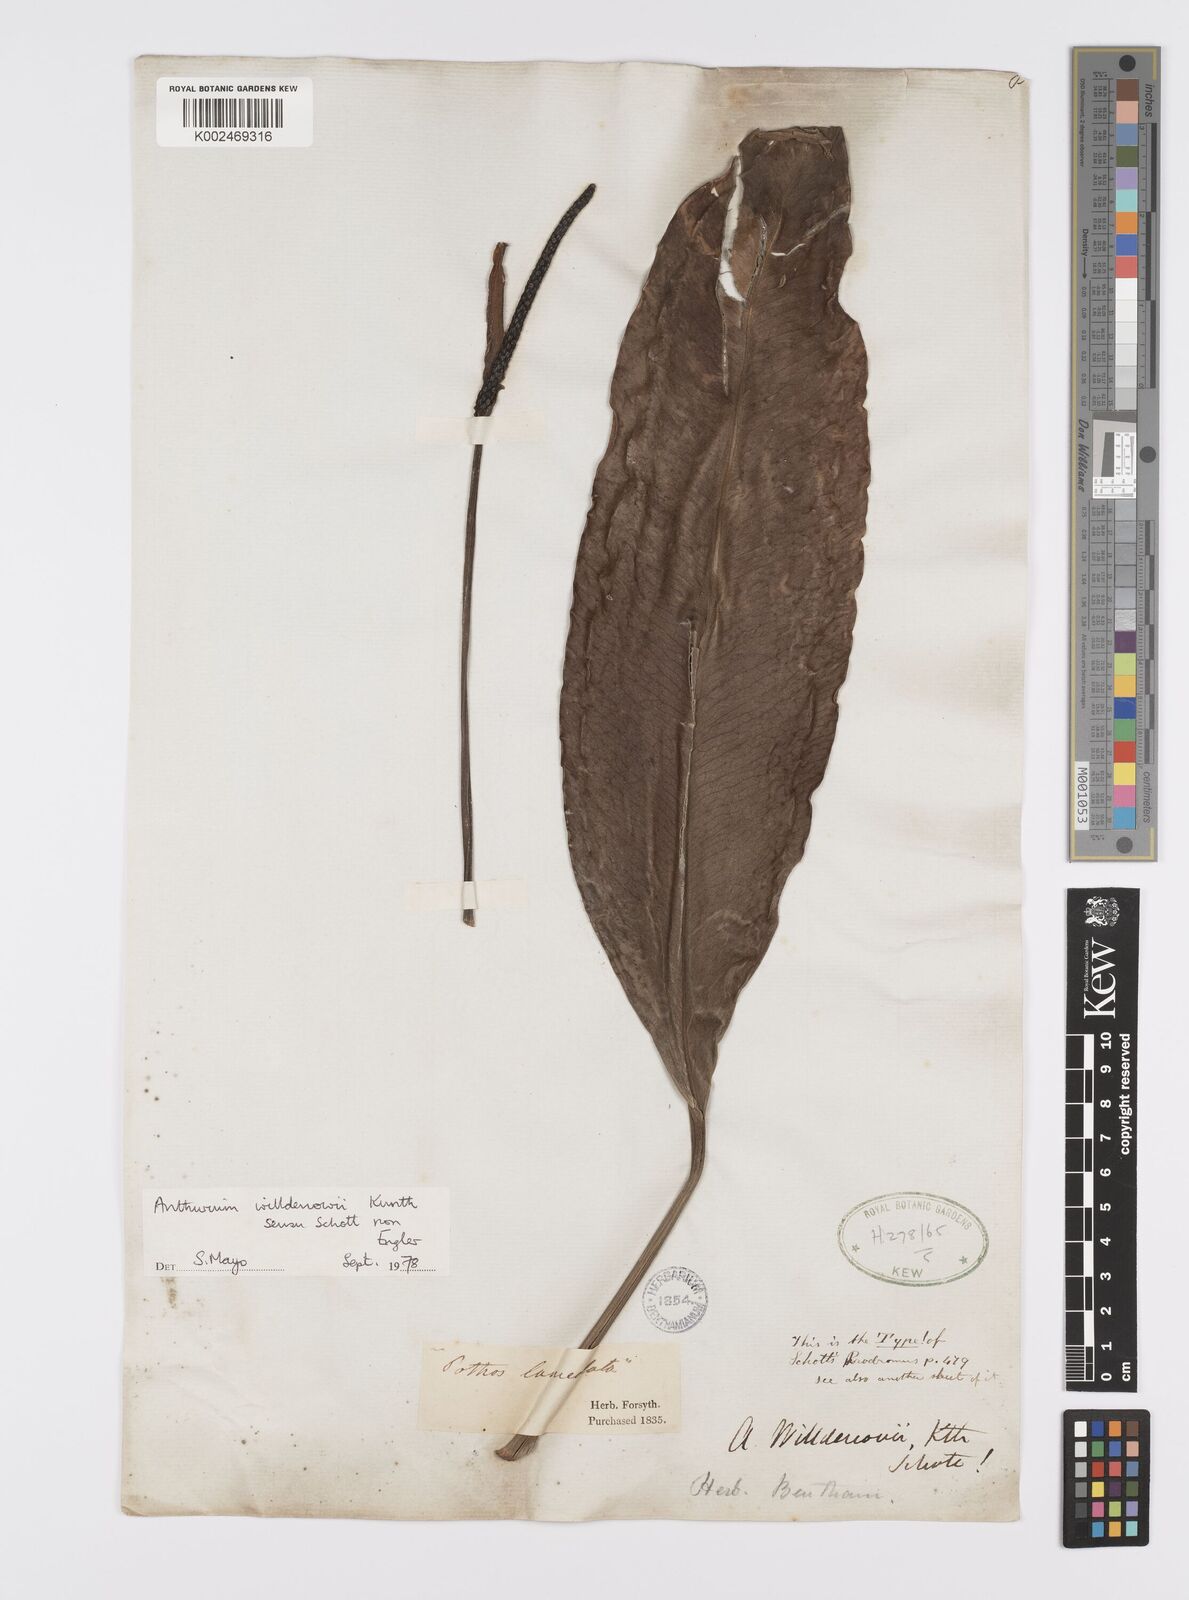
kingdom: Plantae
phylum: Tracheophyta
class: Liliopsida
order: Alismatales
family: Araceae
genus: Anthurium
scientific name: Anthurium willdenowii
